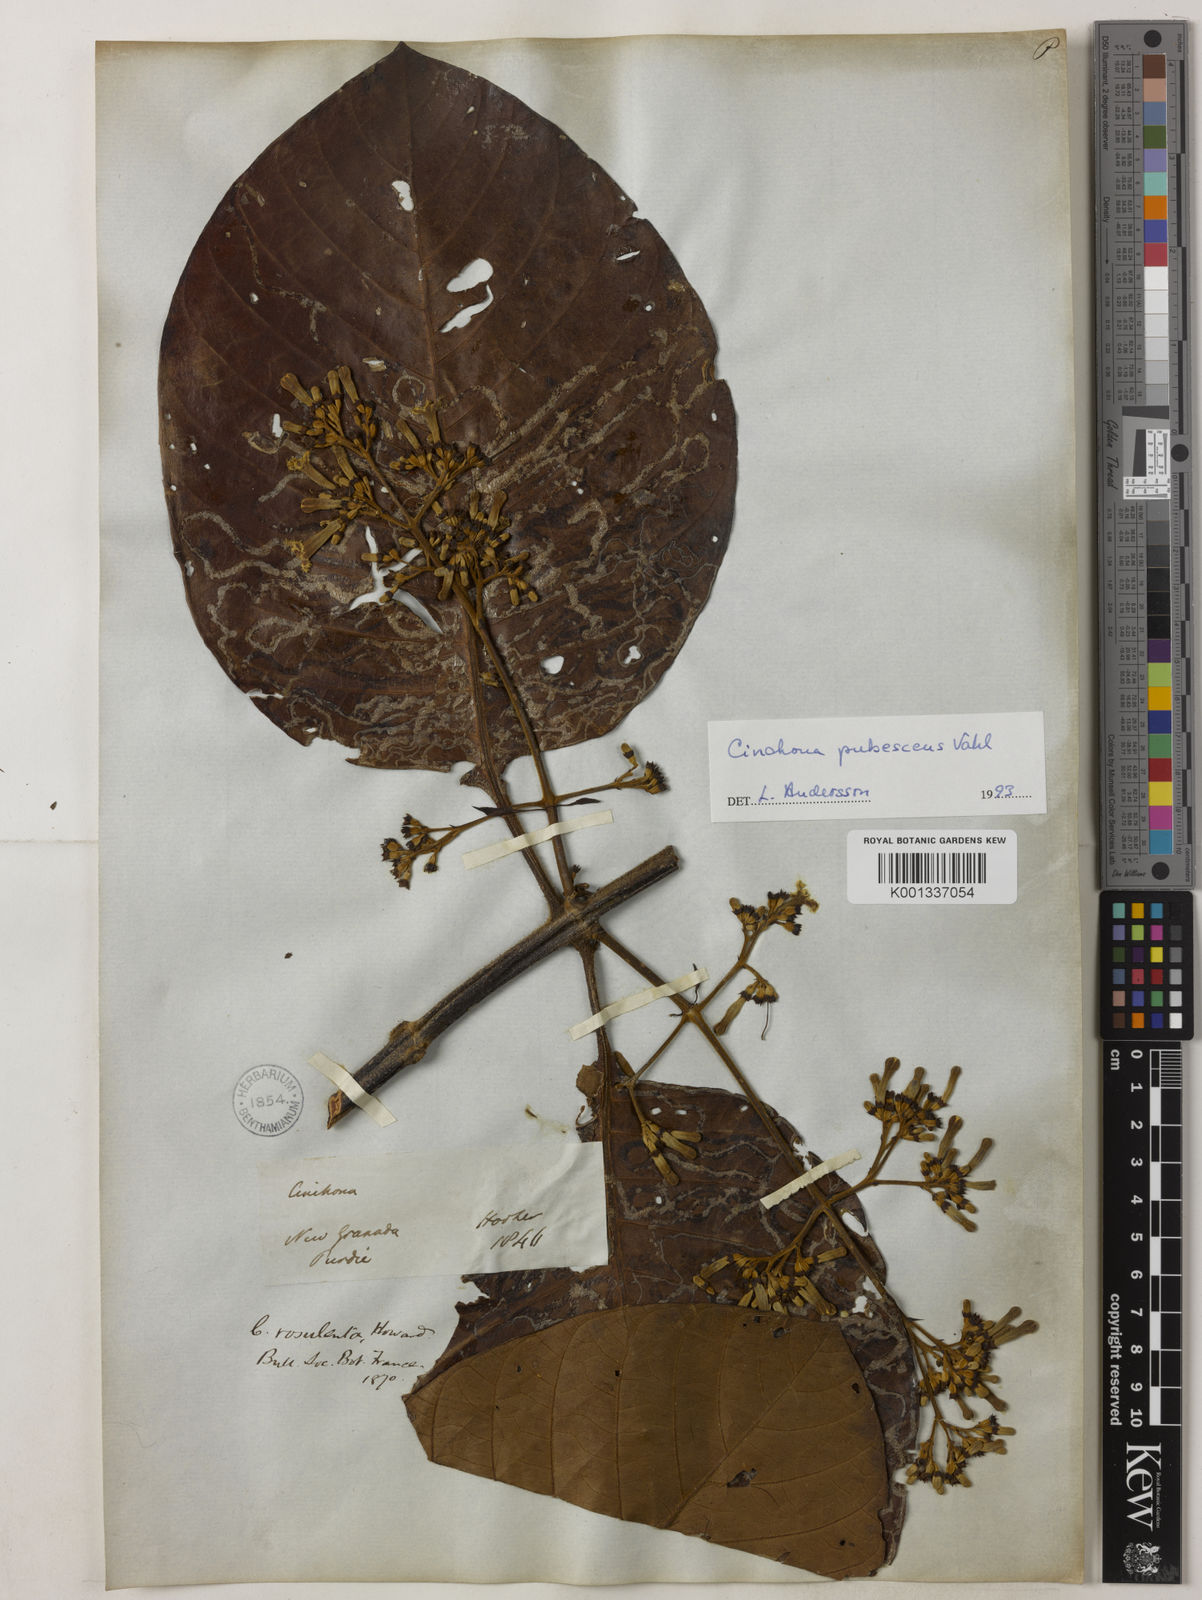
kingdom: Plantae
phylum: Tracheophyta
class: Magnoliopsida
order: Gentianales
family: Rubiaceae
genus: Cinchona
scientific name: Cinchona pubescens
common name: Quinine
